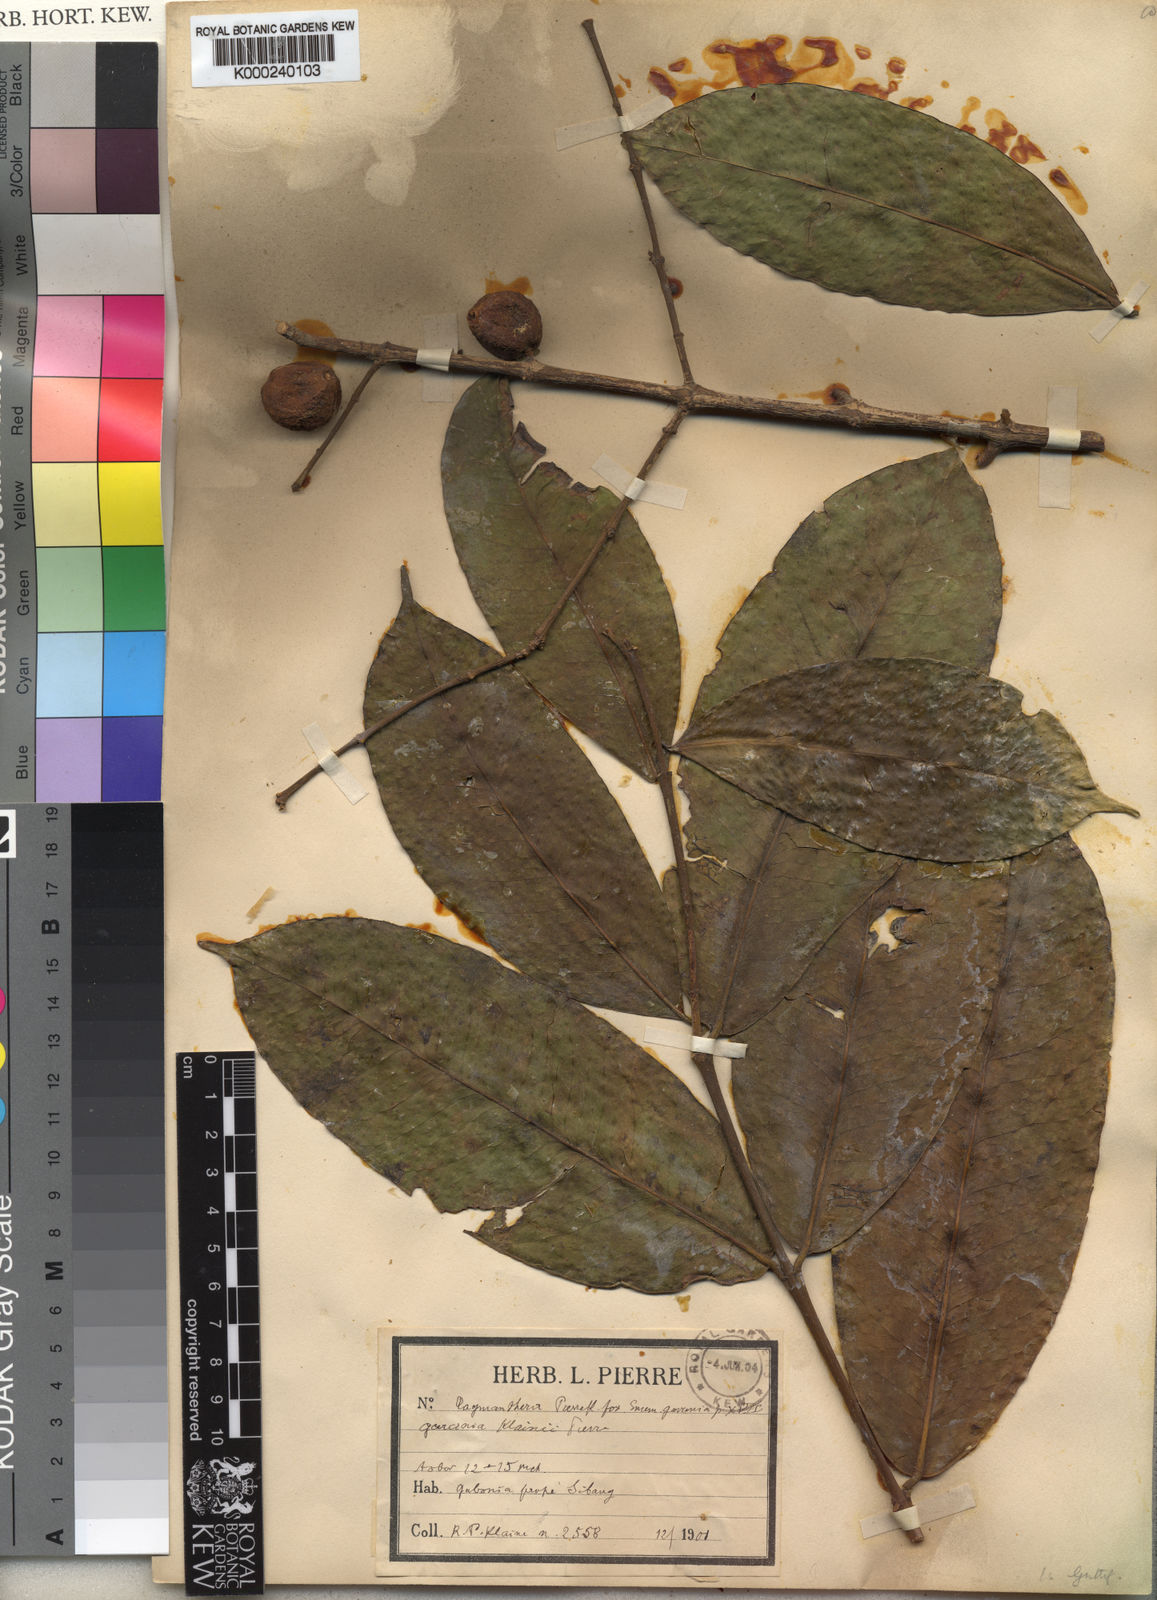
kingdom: Plantae
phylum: Tracheophyta
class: Magnoliopsida
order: Malpighiales
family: Clusiaceae
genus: Garcinia
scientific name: Garcinia epunctata
